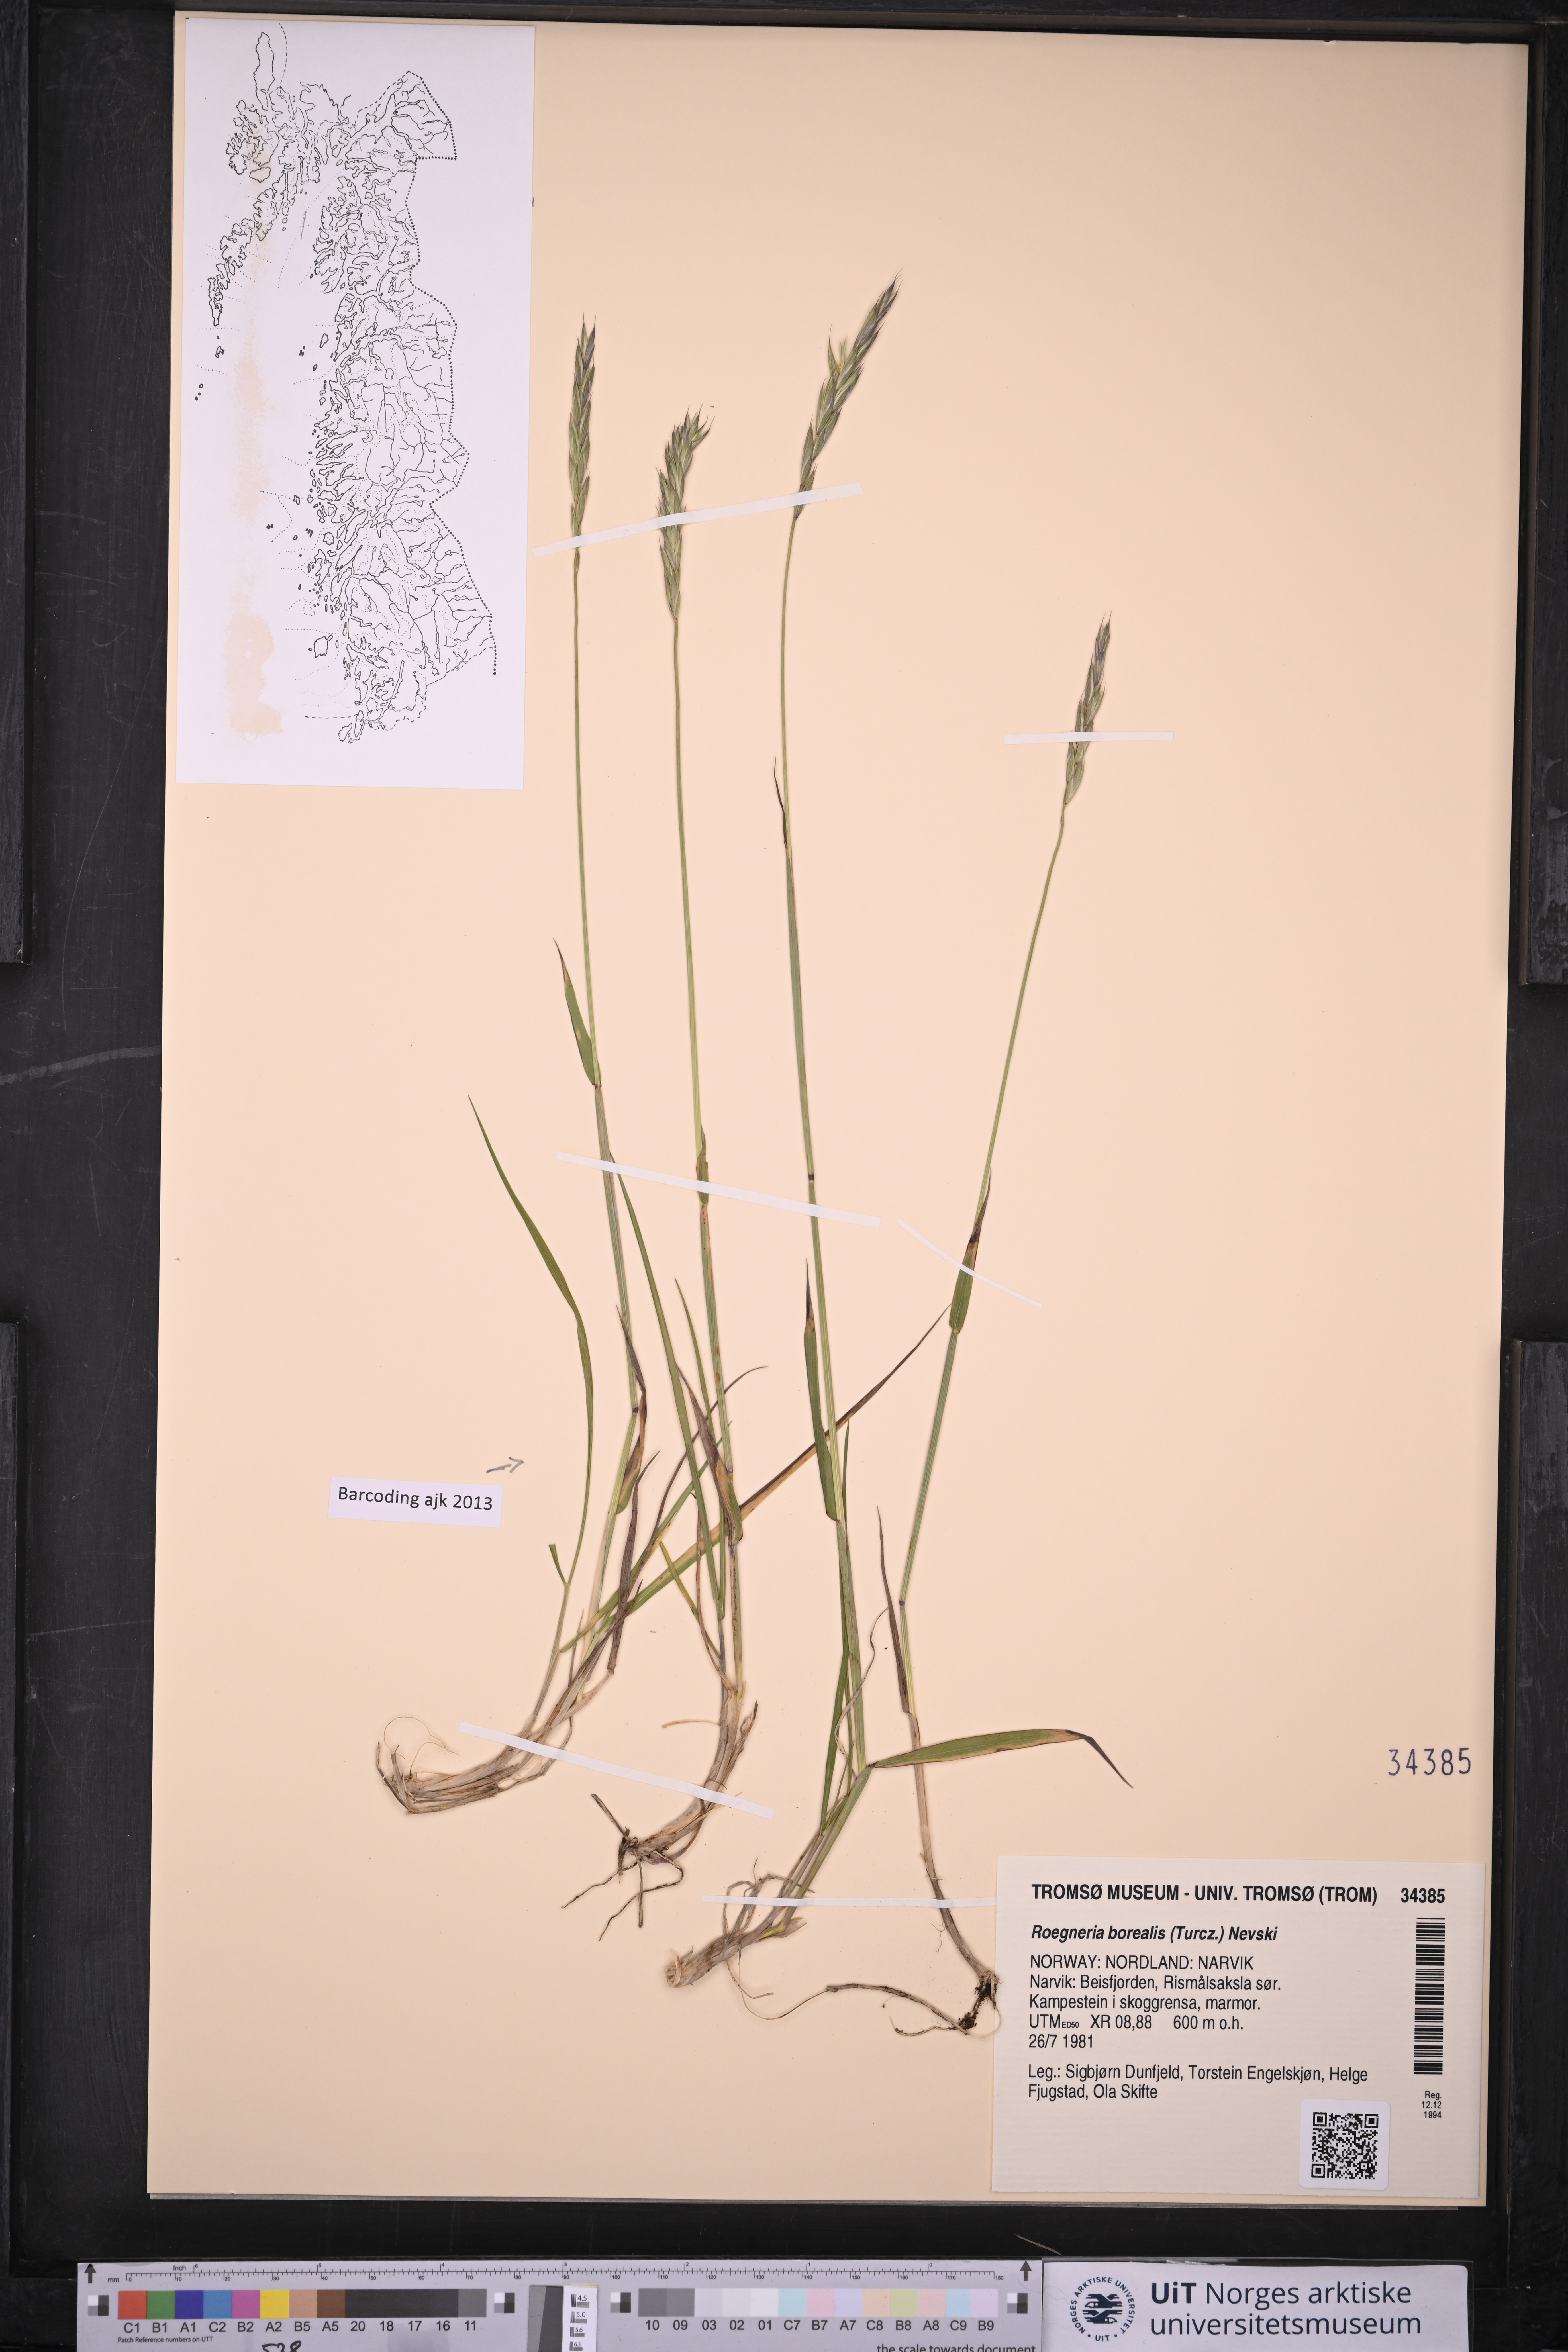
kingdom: Plantae
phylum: Tracheophyta
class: Liliopsida
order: Poales
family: Poaceae
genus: Elymus
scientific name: Elymus macrourus
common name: Northern wheatgrass
